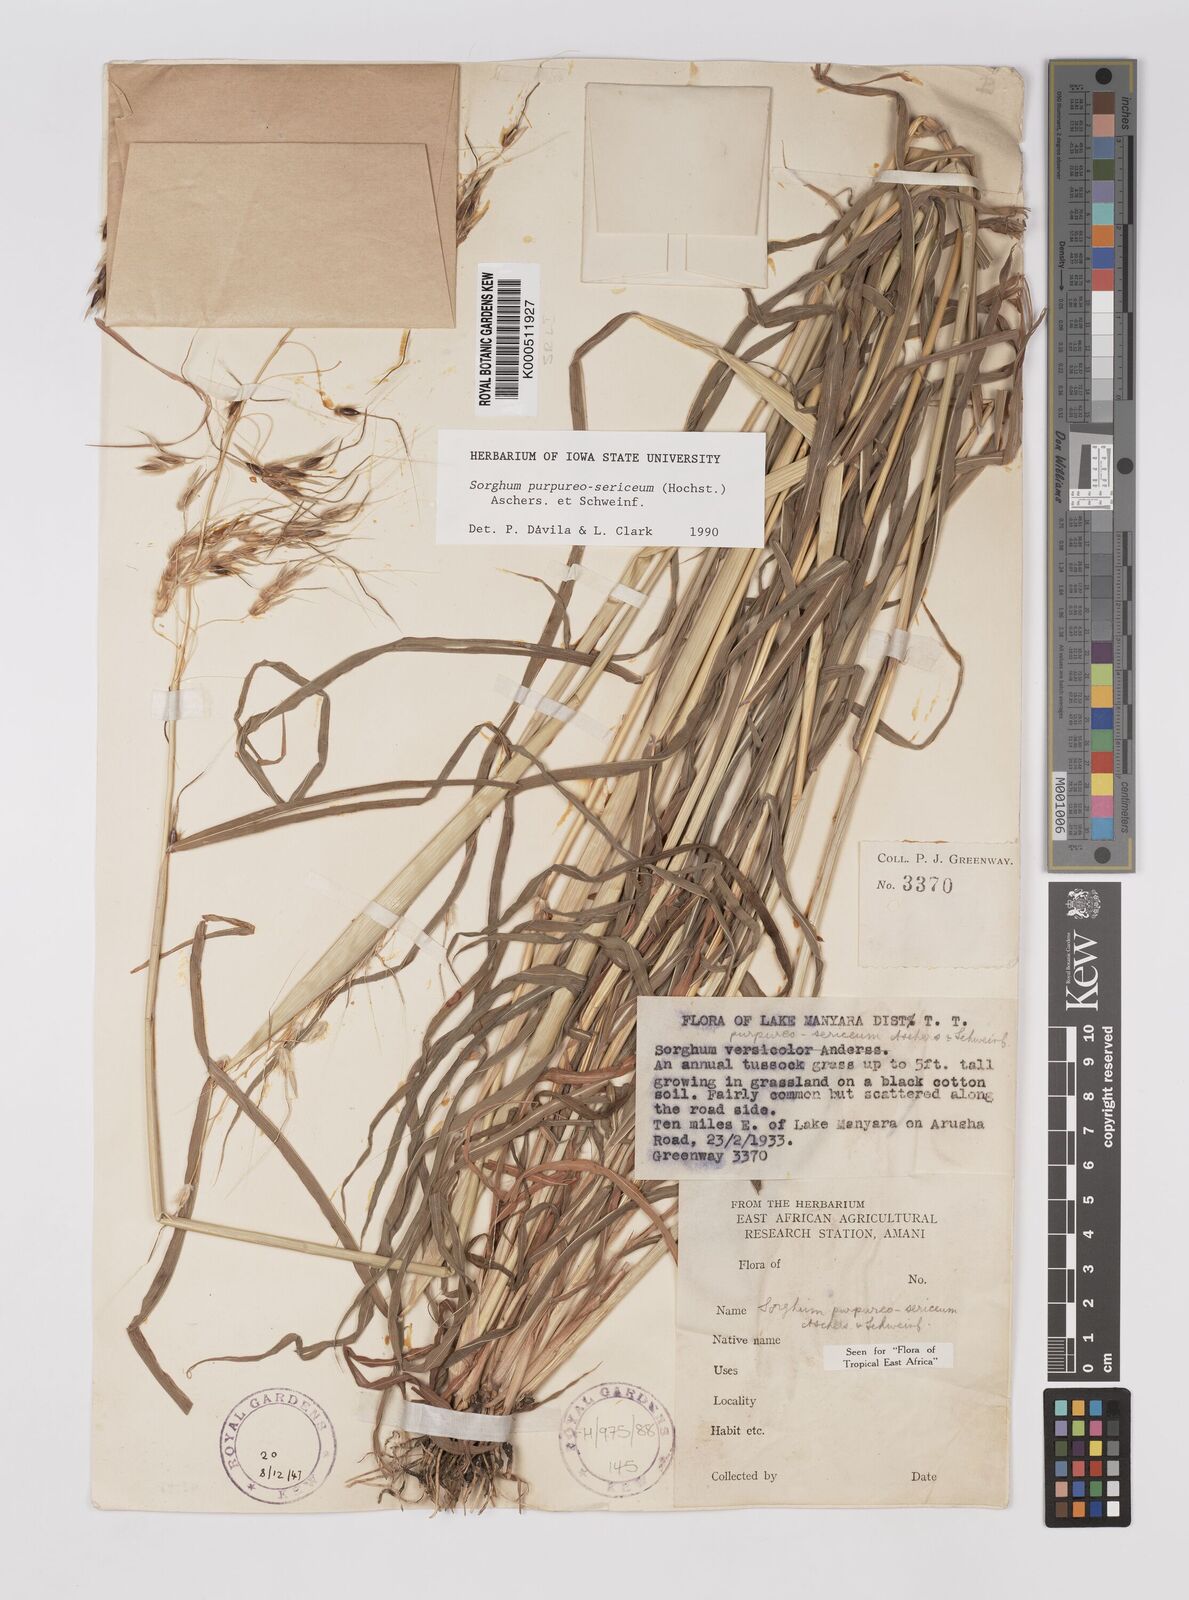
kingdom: Plantae
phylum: Tracheophyta
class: Liliopsida
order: Poales
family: Poaceae
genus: Sarga
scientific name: Sarga purpureosericea
